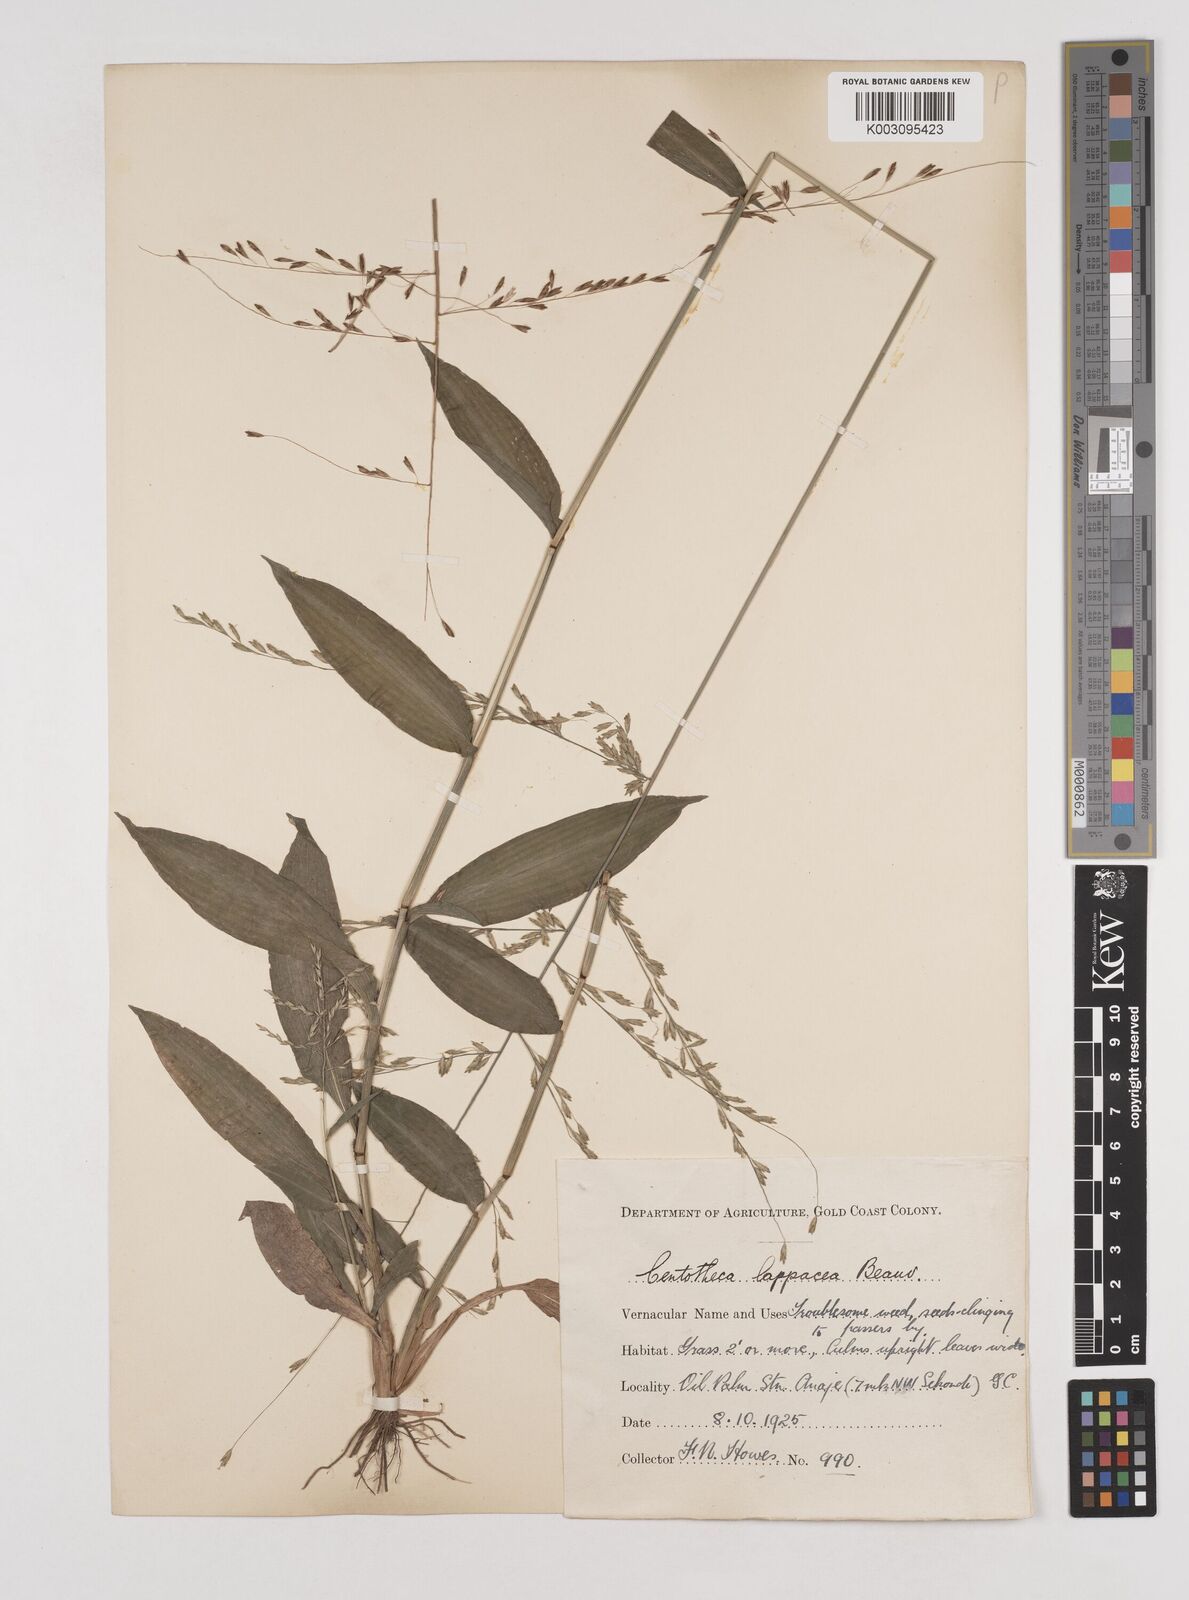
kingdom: Plantae
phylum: Tracheophyta
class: Liliopsida
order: Poales
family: Poaceae
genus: Centotheca
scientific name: Centotheca lappacea
